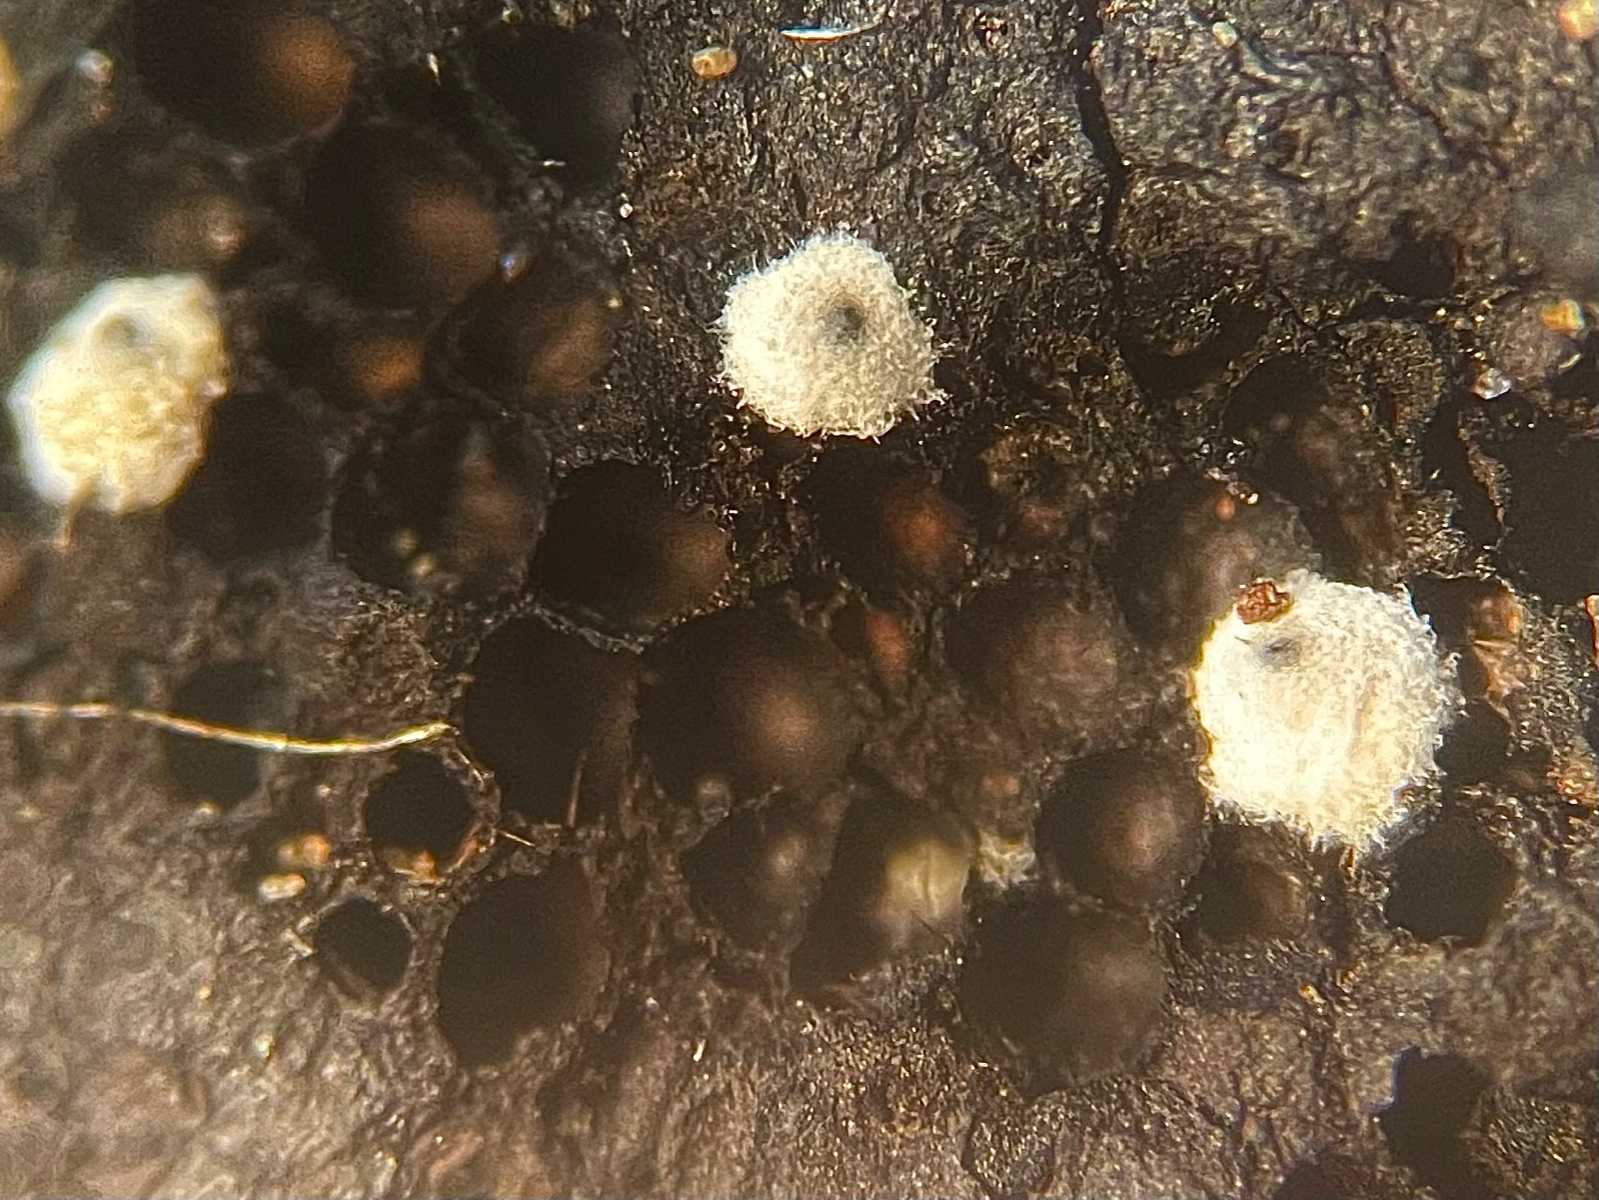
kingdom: Fungi
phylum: Ascomycota
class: Sordariomycetes
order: Sordariales
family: Lasiosphaeriaceae
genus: Lasiosphaeria
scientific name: Lasiosphaeria ovina
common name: fåre-kernesvamp
